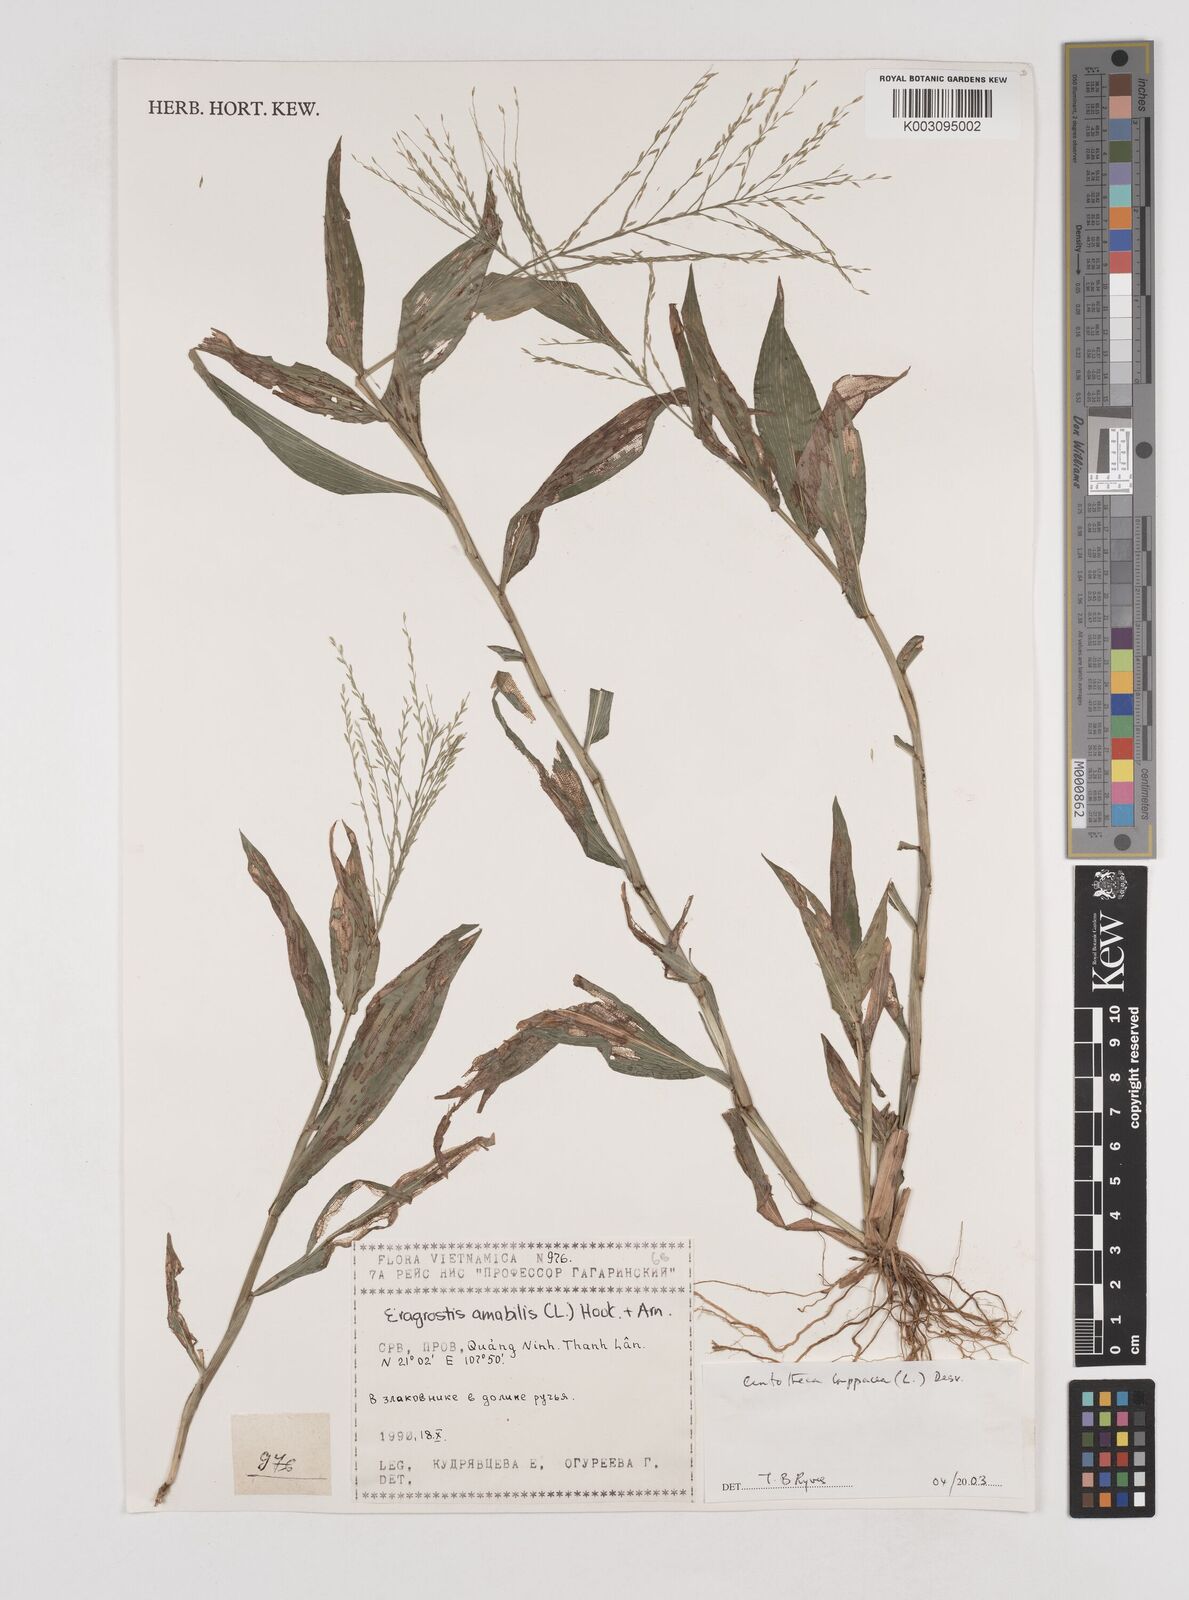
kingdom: Plantae
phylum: Tracheophyta
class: Liliopsida
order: Poales
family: Poaceae
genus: Centotheca
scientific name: Centotheca lappacea
